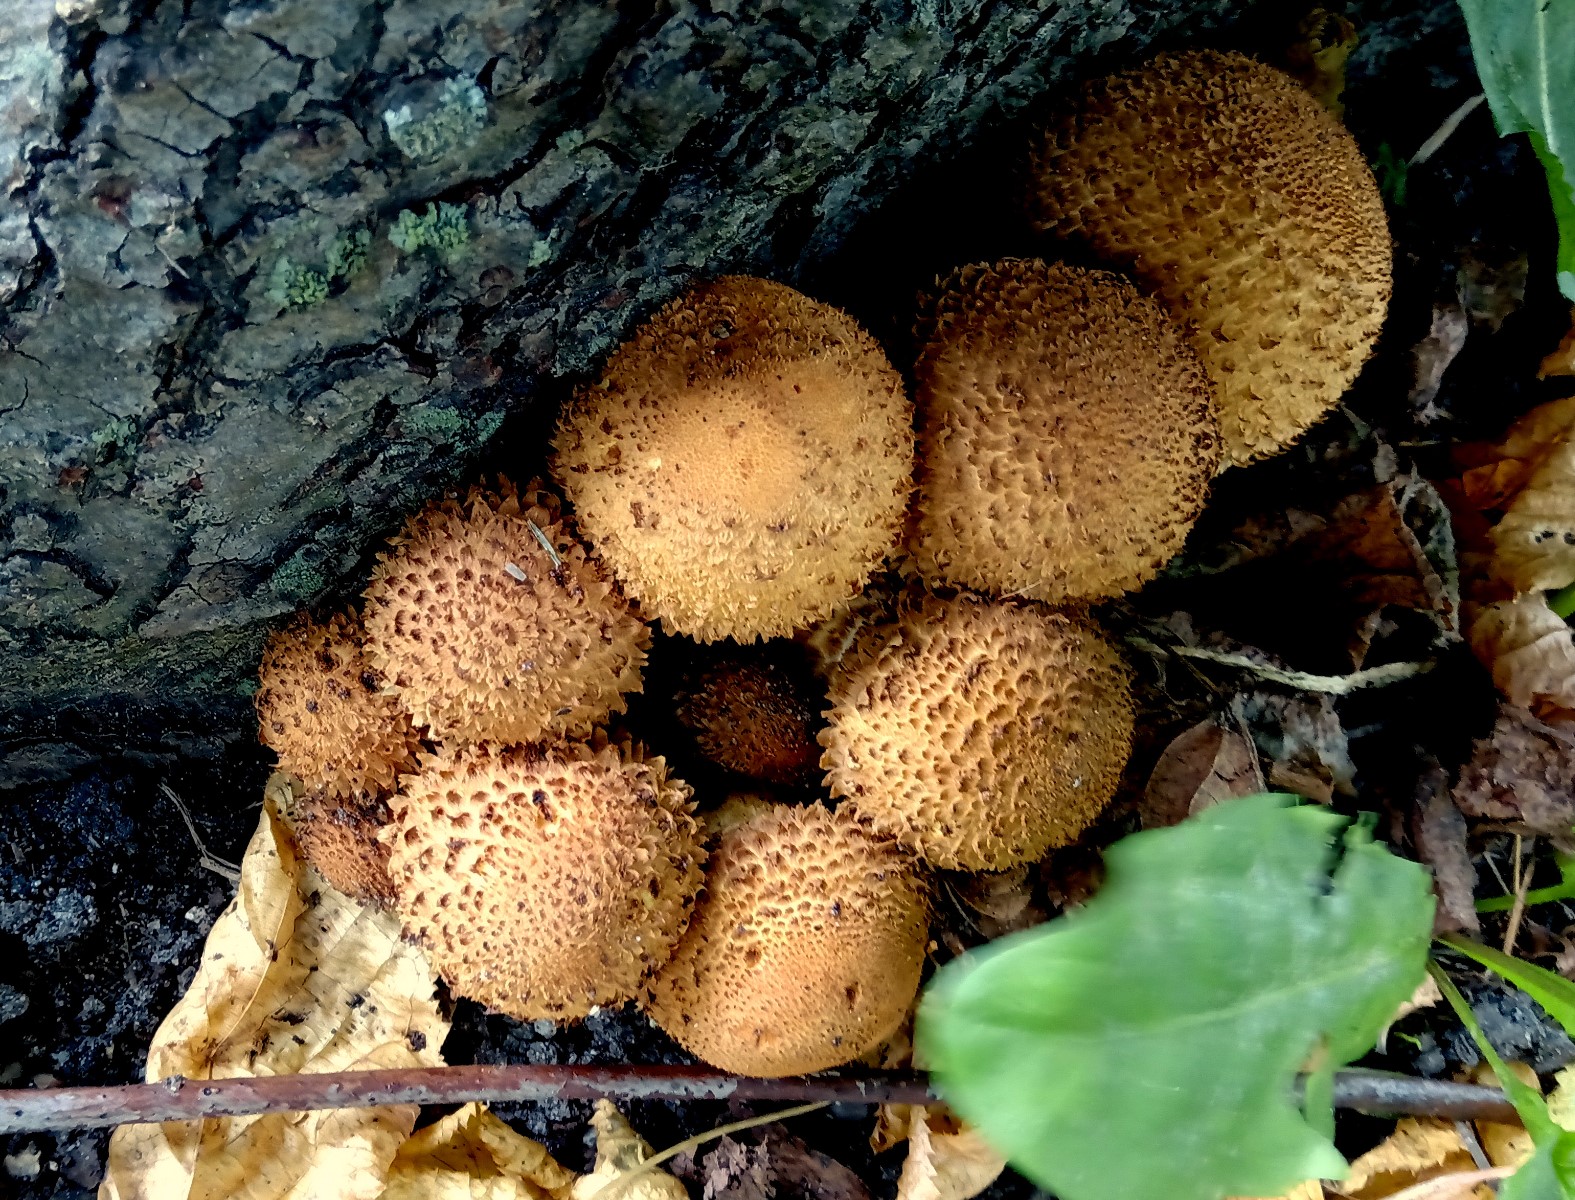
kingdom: Fungi
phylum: Basidiomycota
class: Agaricomycetes
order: Agaricales
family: Strophariaceae
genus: Pholiota
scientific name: Pholiota squarrosa
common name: krumskællet skælhat
